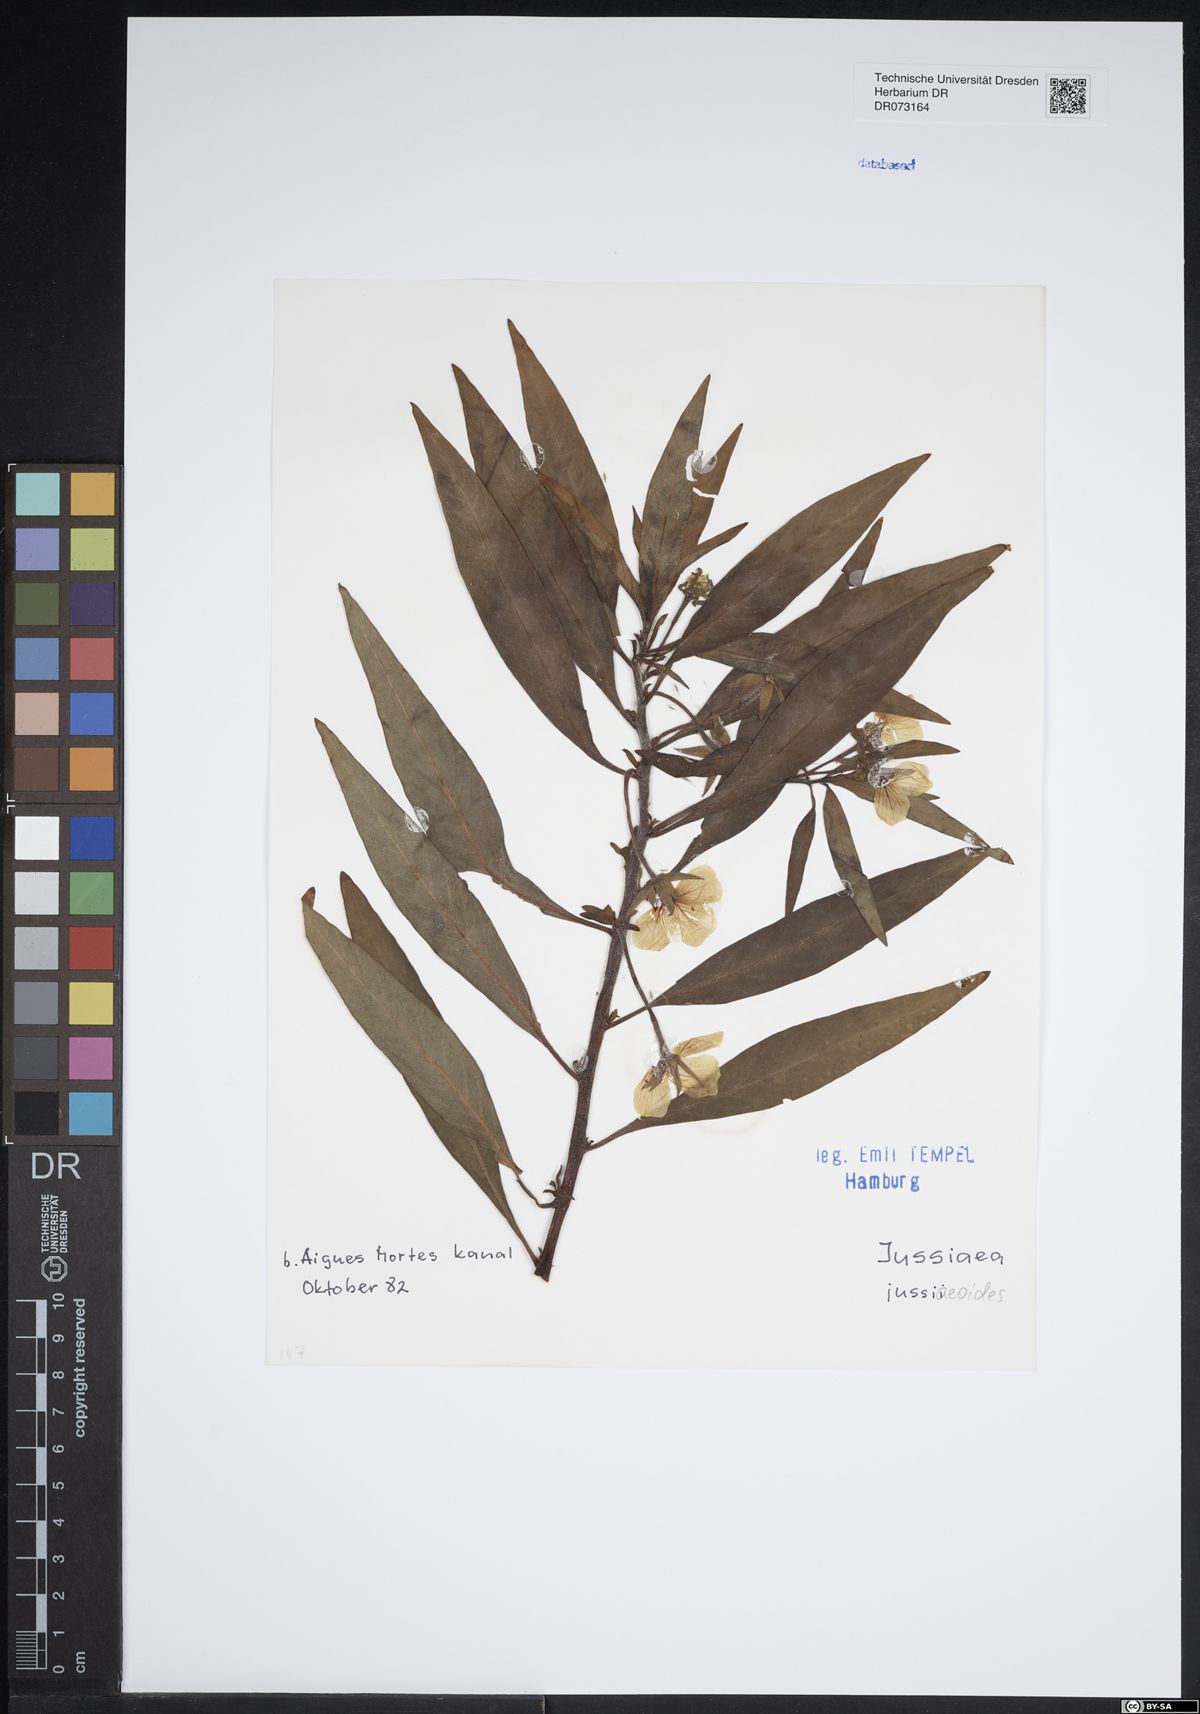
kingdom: Plantae
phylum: Tracheophyta
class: Magnoliopsida
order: Myrtales
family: Onagraceae
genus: Ludwigia
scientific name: Ludwigia jussiaeoides
